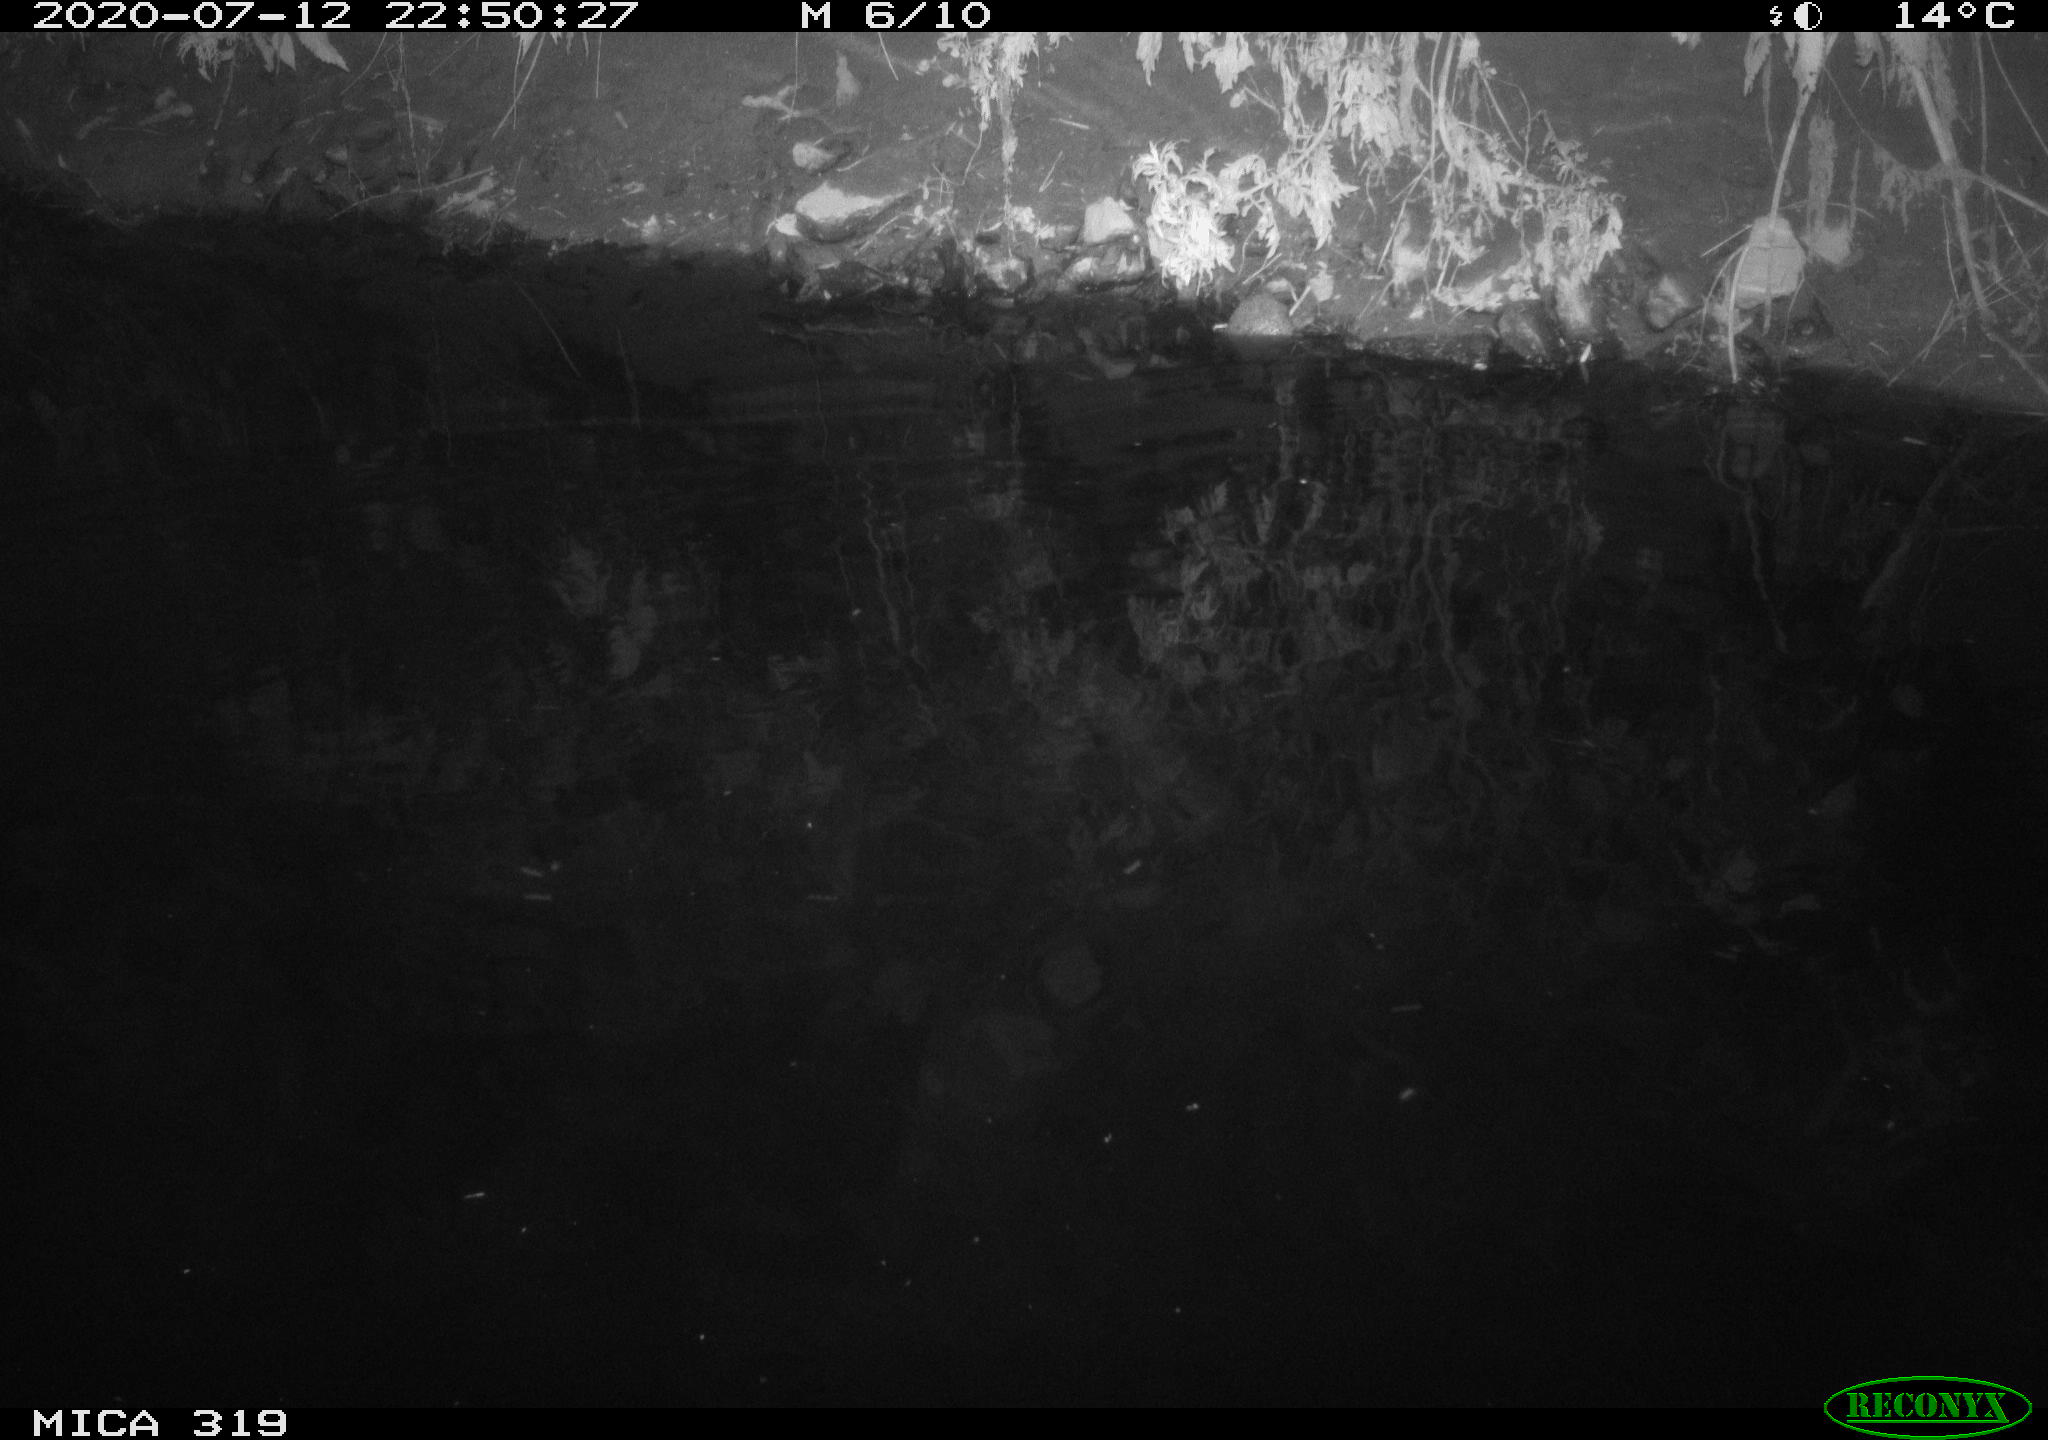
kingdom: Animalia
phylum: Chordata
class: Aves
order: Anseriformes
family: Anatidae
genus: Anas
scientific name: Anas platyrhynchos
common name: Mallard
